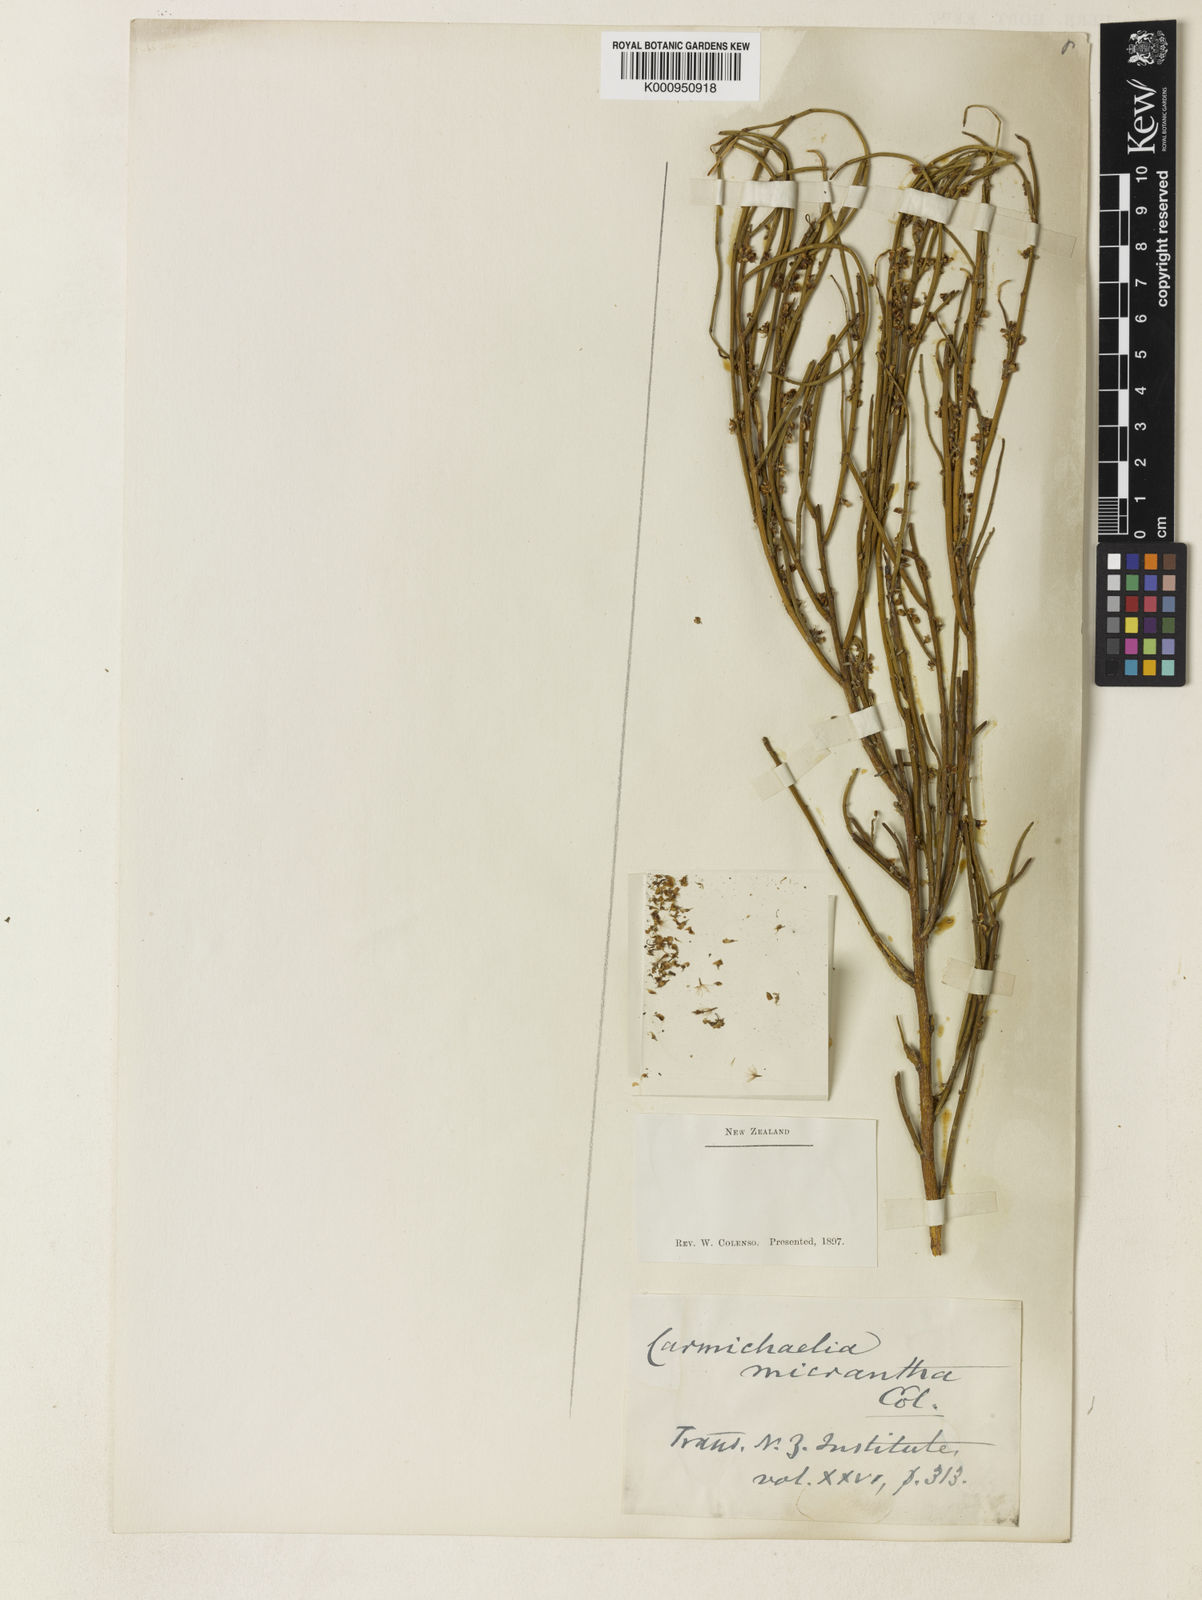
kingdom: Plantae
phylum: Tracheophyta
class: Magnoliopsida
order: Fabales
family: Fabaceae
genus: Carmichaelia
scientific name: Carmichaelia australis
